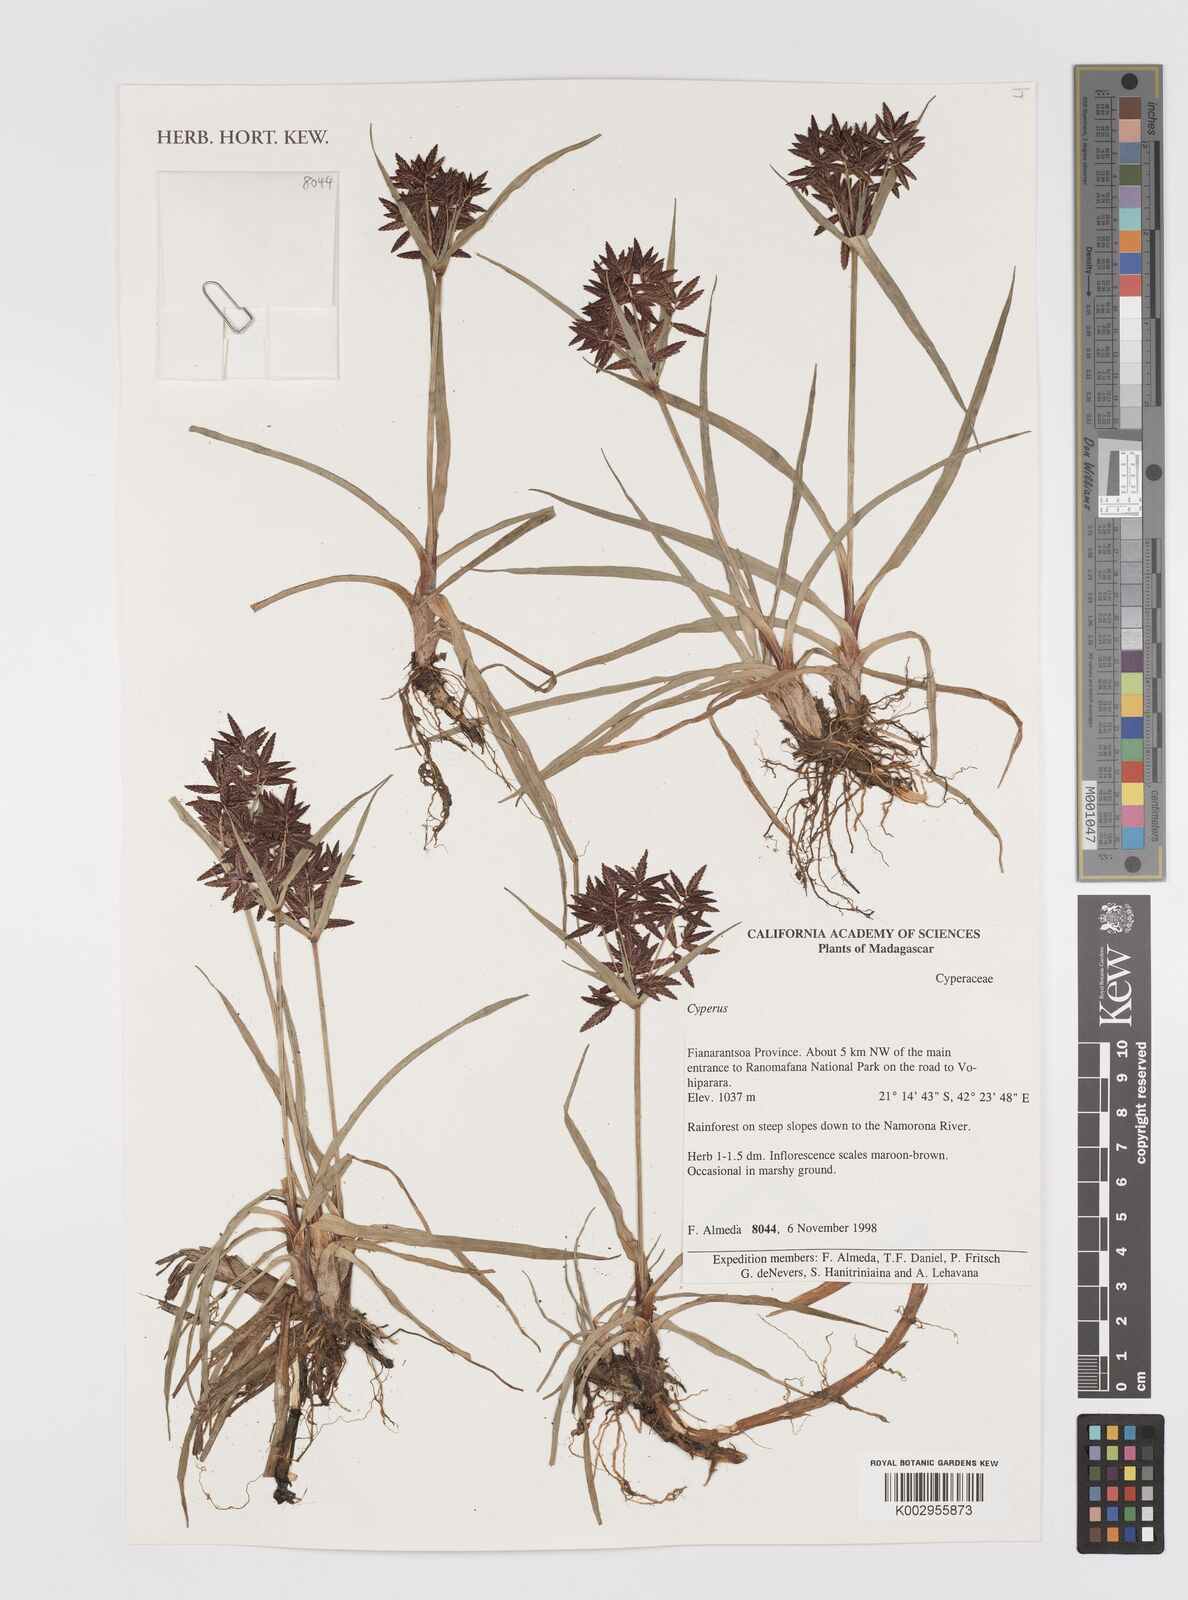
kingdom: Plantae
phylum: Tracheophyta
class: Liliopsida
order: Poales
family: Cyperaceae
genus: Cyperus
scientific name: Cyperus
